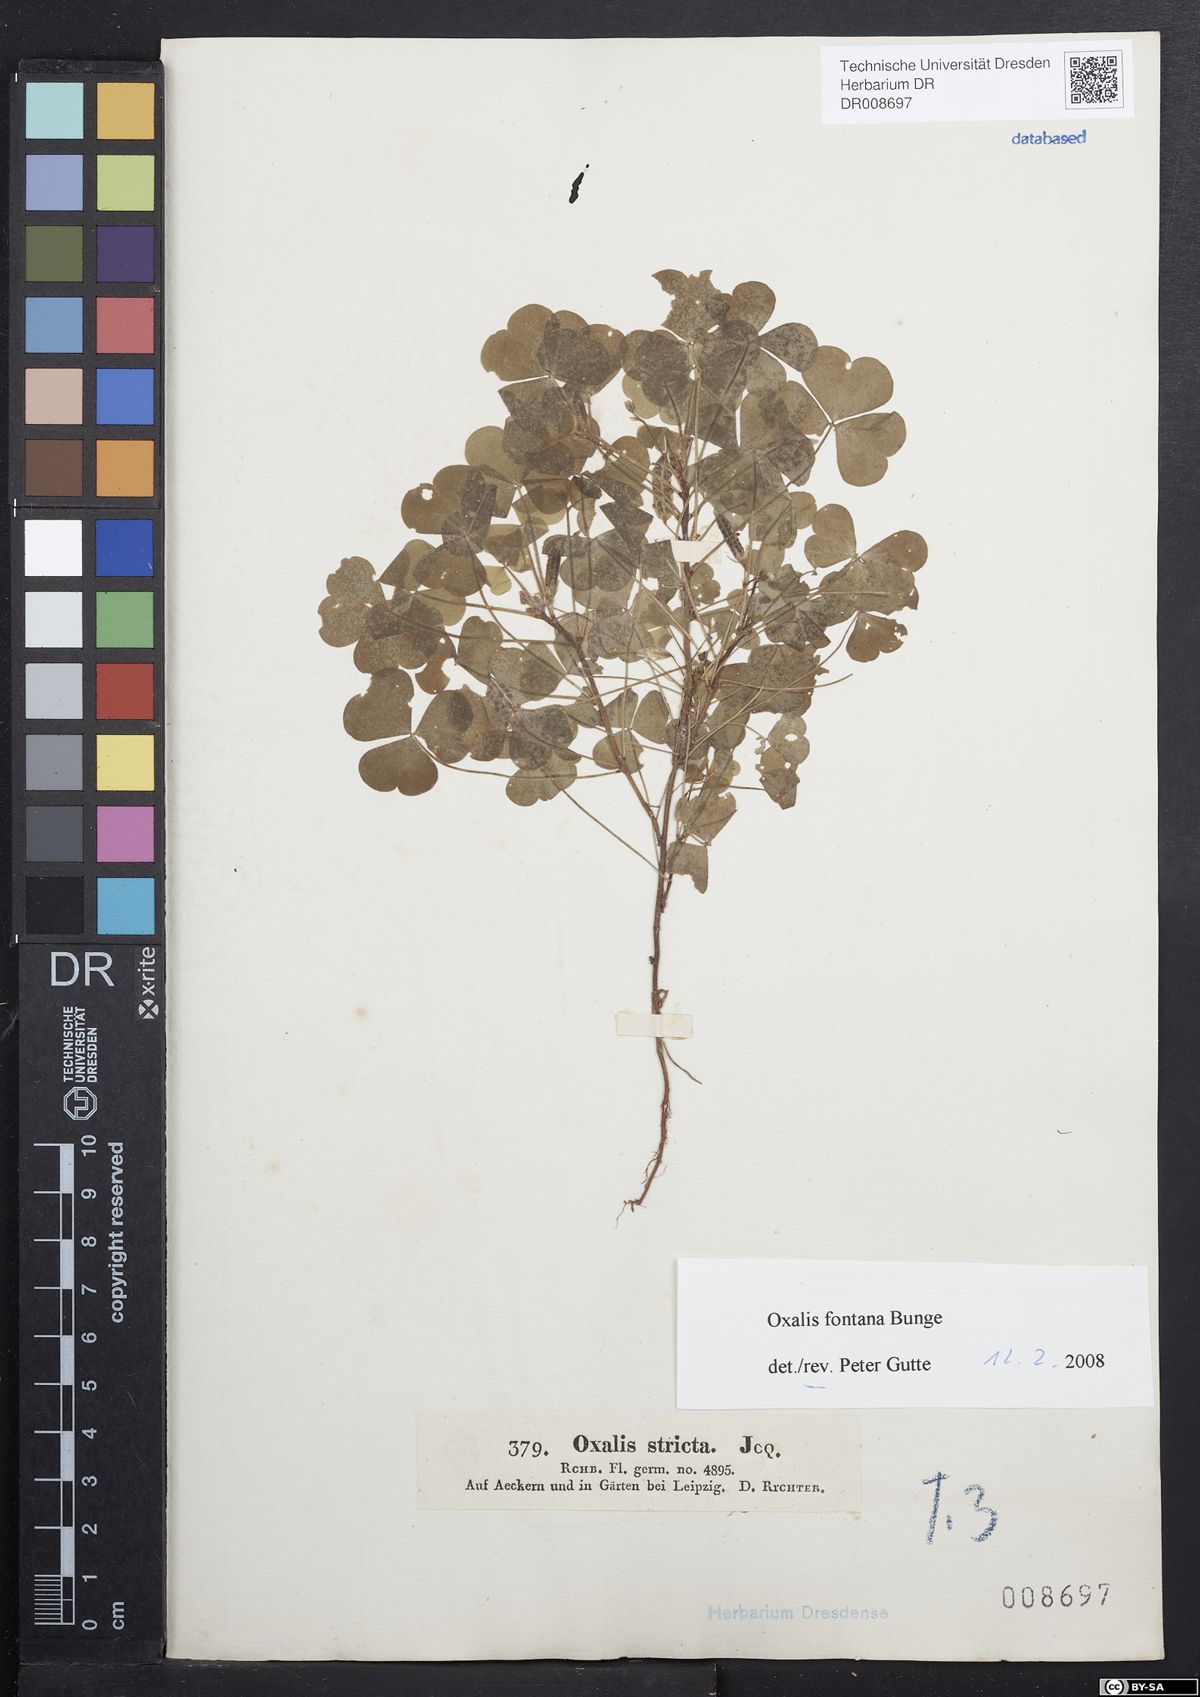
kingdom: Plantae
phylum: Tracheophyta
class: Magnoliopsida
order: Oxalidales
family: Oxalidaceae
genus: Oxalis
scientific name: Oxalis stricta
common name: Upright yellow-sorrel
